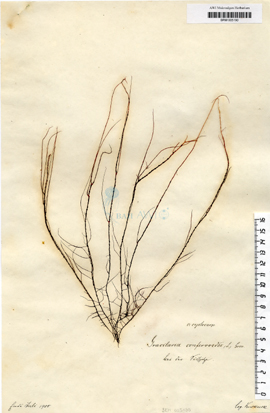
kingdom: Plantae
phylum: Rhodophyta
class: Florideophyceae
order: Gracilariales
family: Gracilariaceae
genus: Gracilaria
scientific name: Gracilaria gracilis
